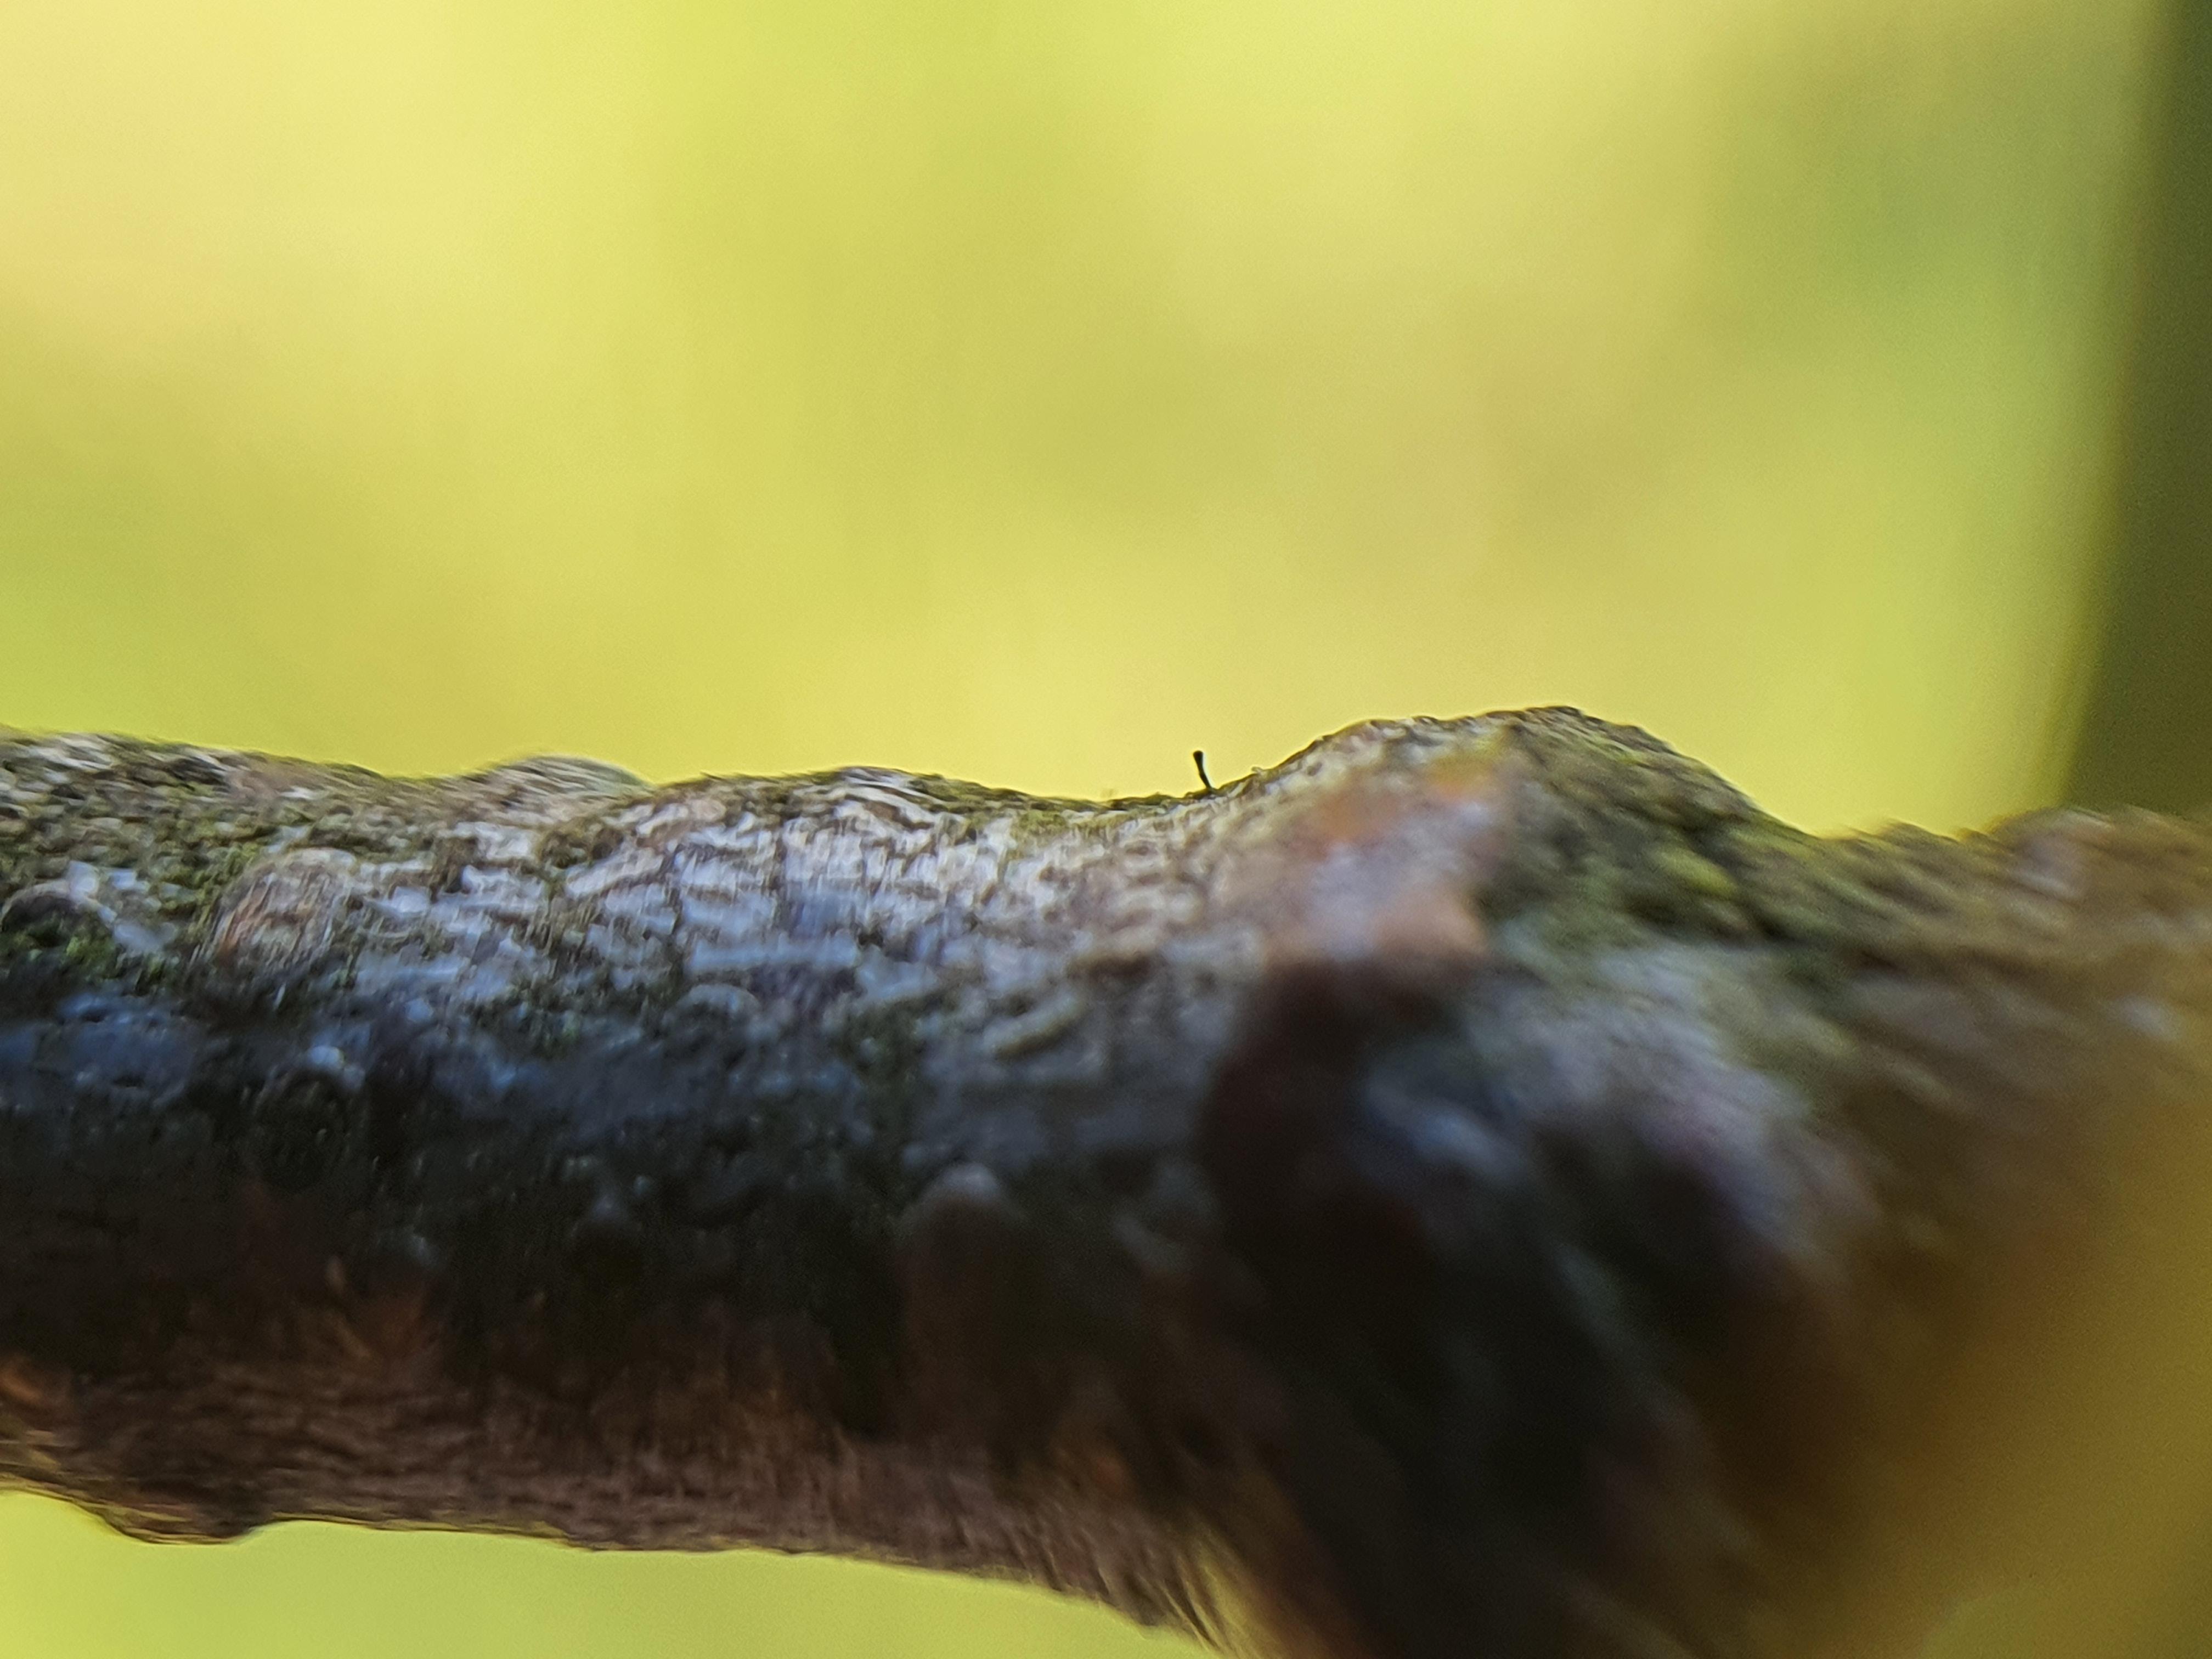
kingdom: Fungi
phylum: Ascomycota
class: Eurotiomycetes
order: Mycocaliciales
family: Mycocaliciaceae
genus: Stenocybe
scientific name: Stenocybe pullatula
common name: elle-nålesvamp
